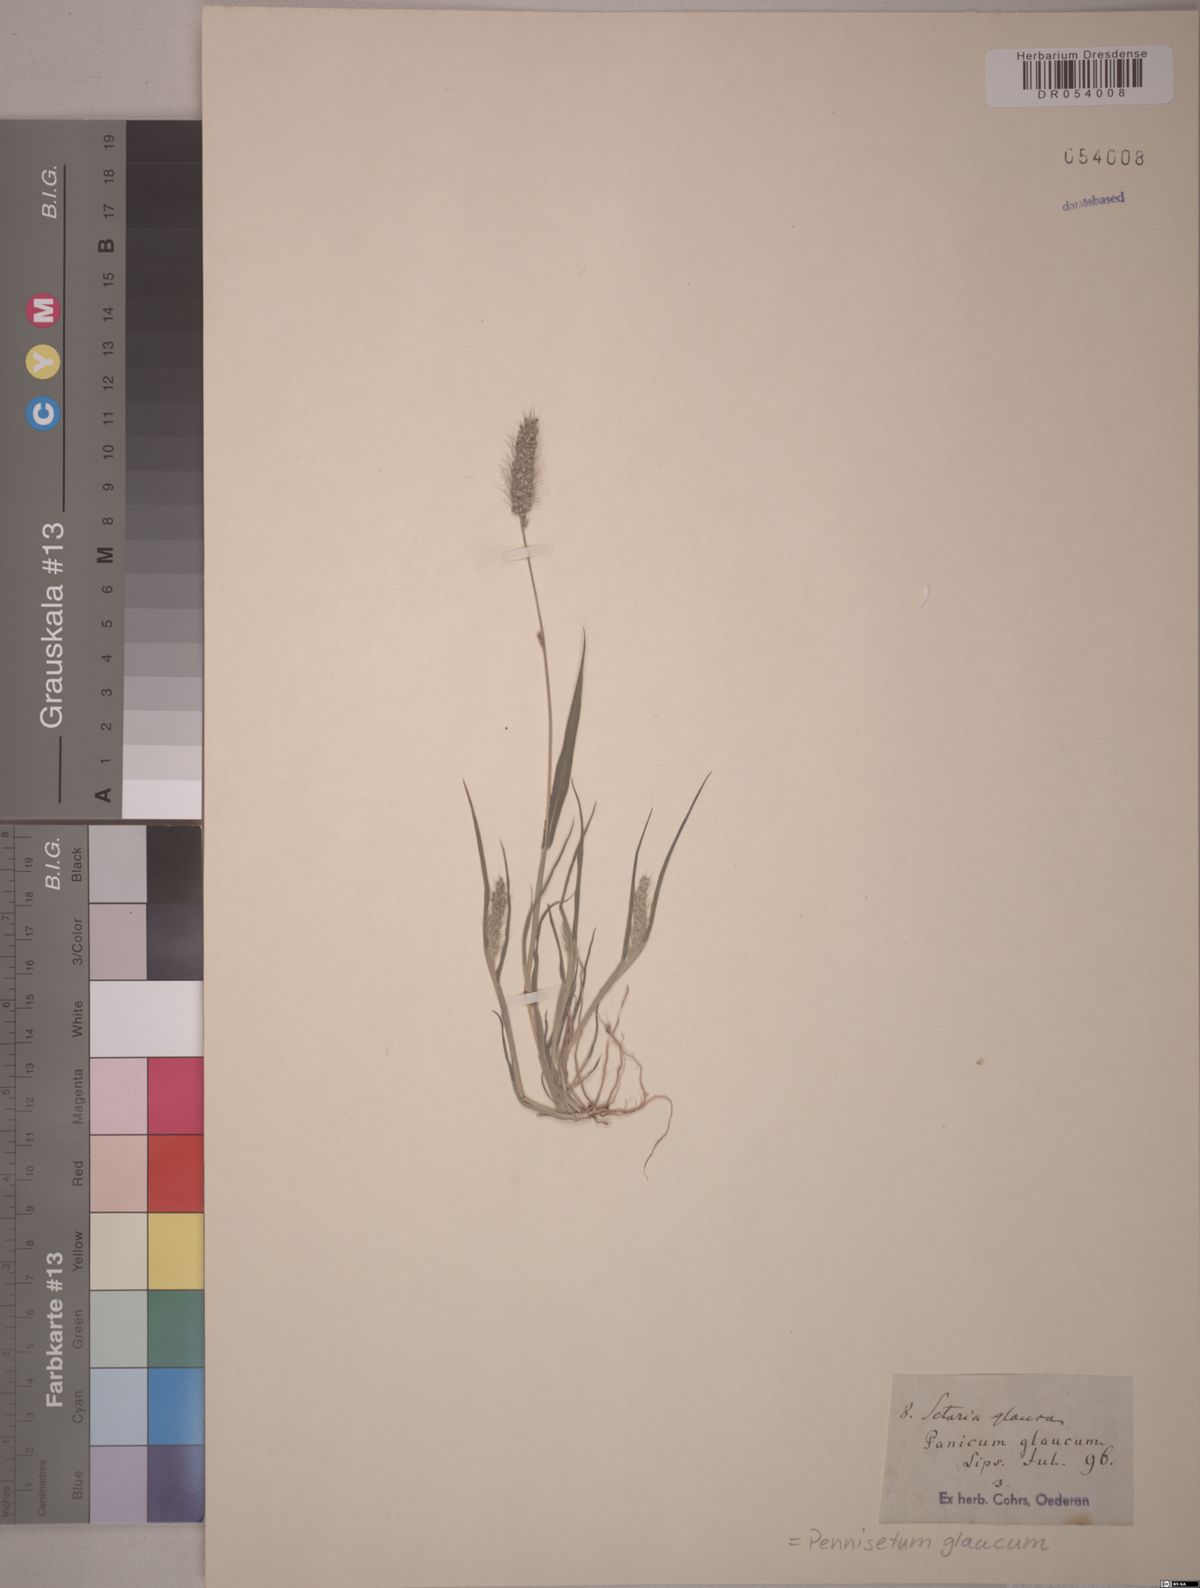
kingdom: Plantae
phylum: Tracheophyta
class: Liliopsida
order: Poales
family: Poaceae
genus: Cenchrus
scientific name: Cenchrus americanus
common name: Pearl millet
